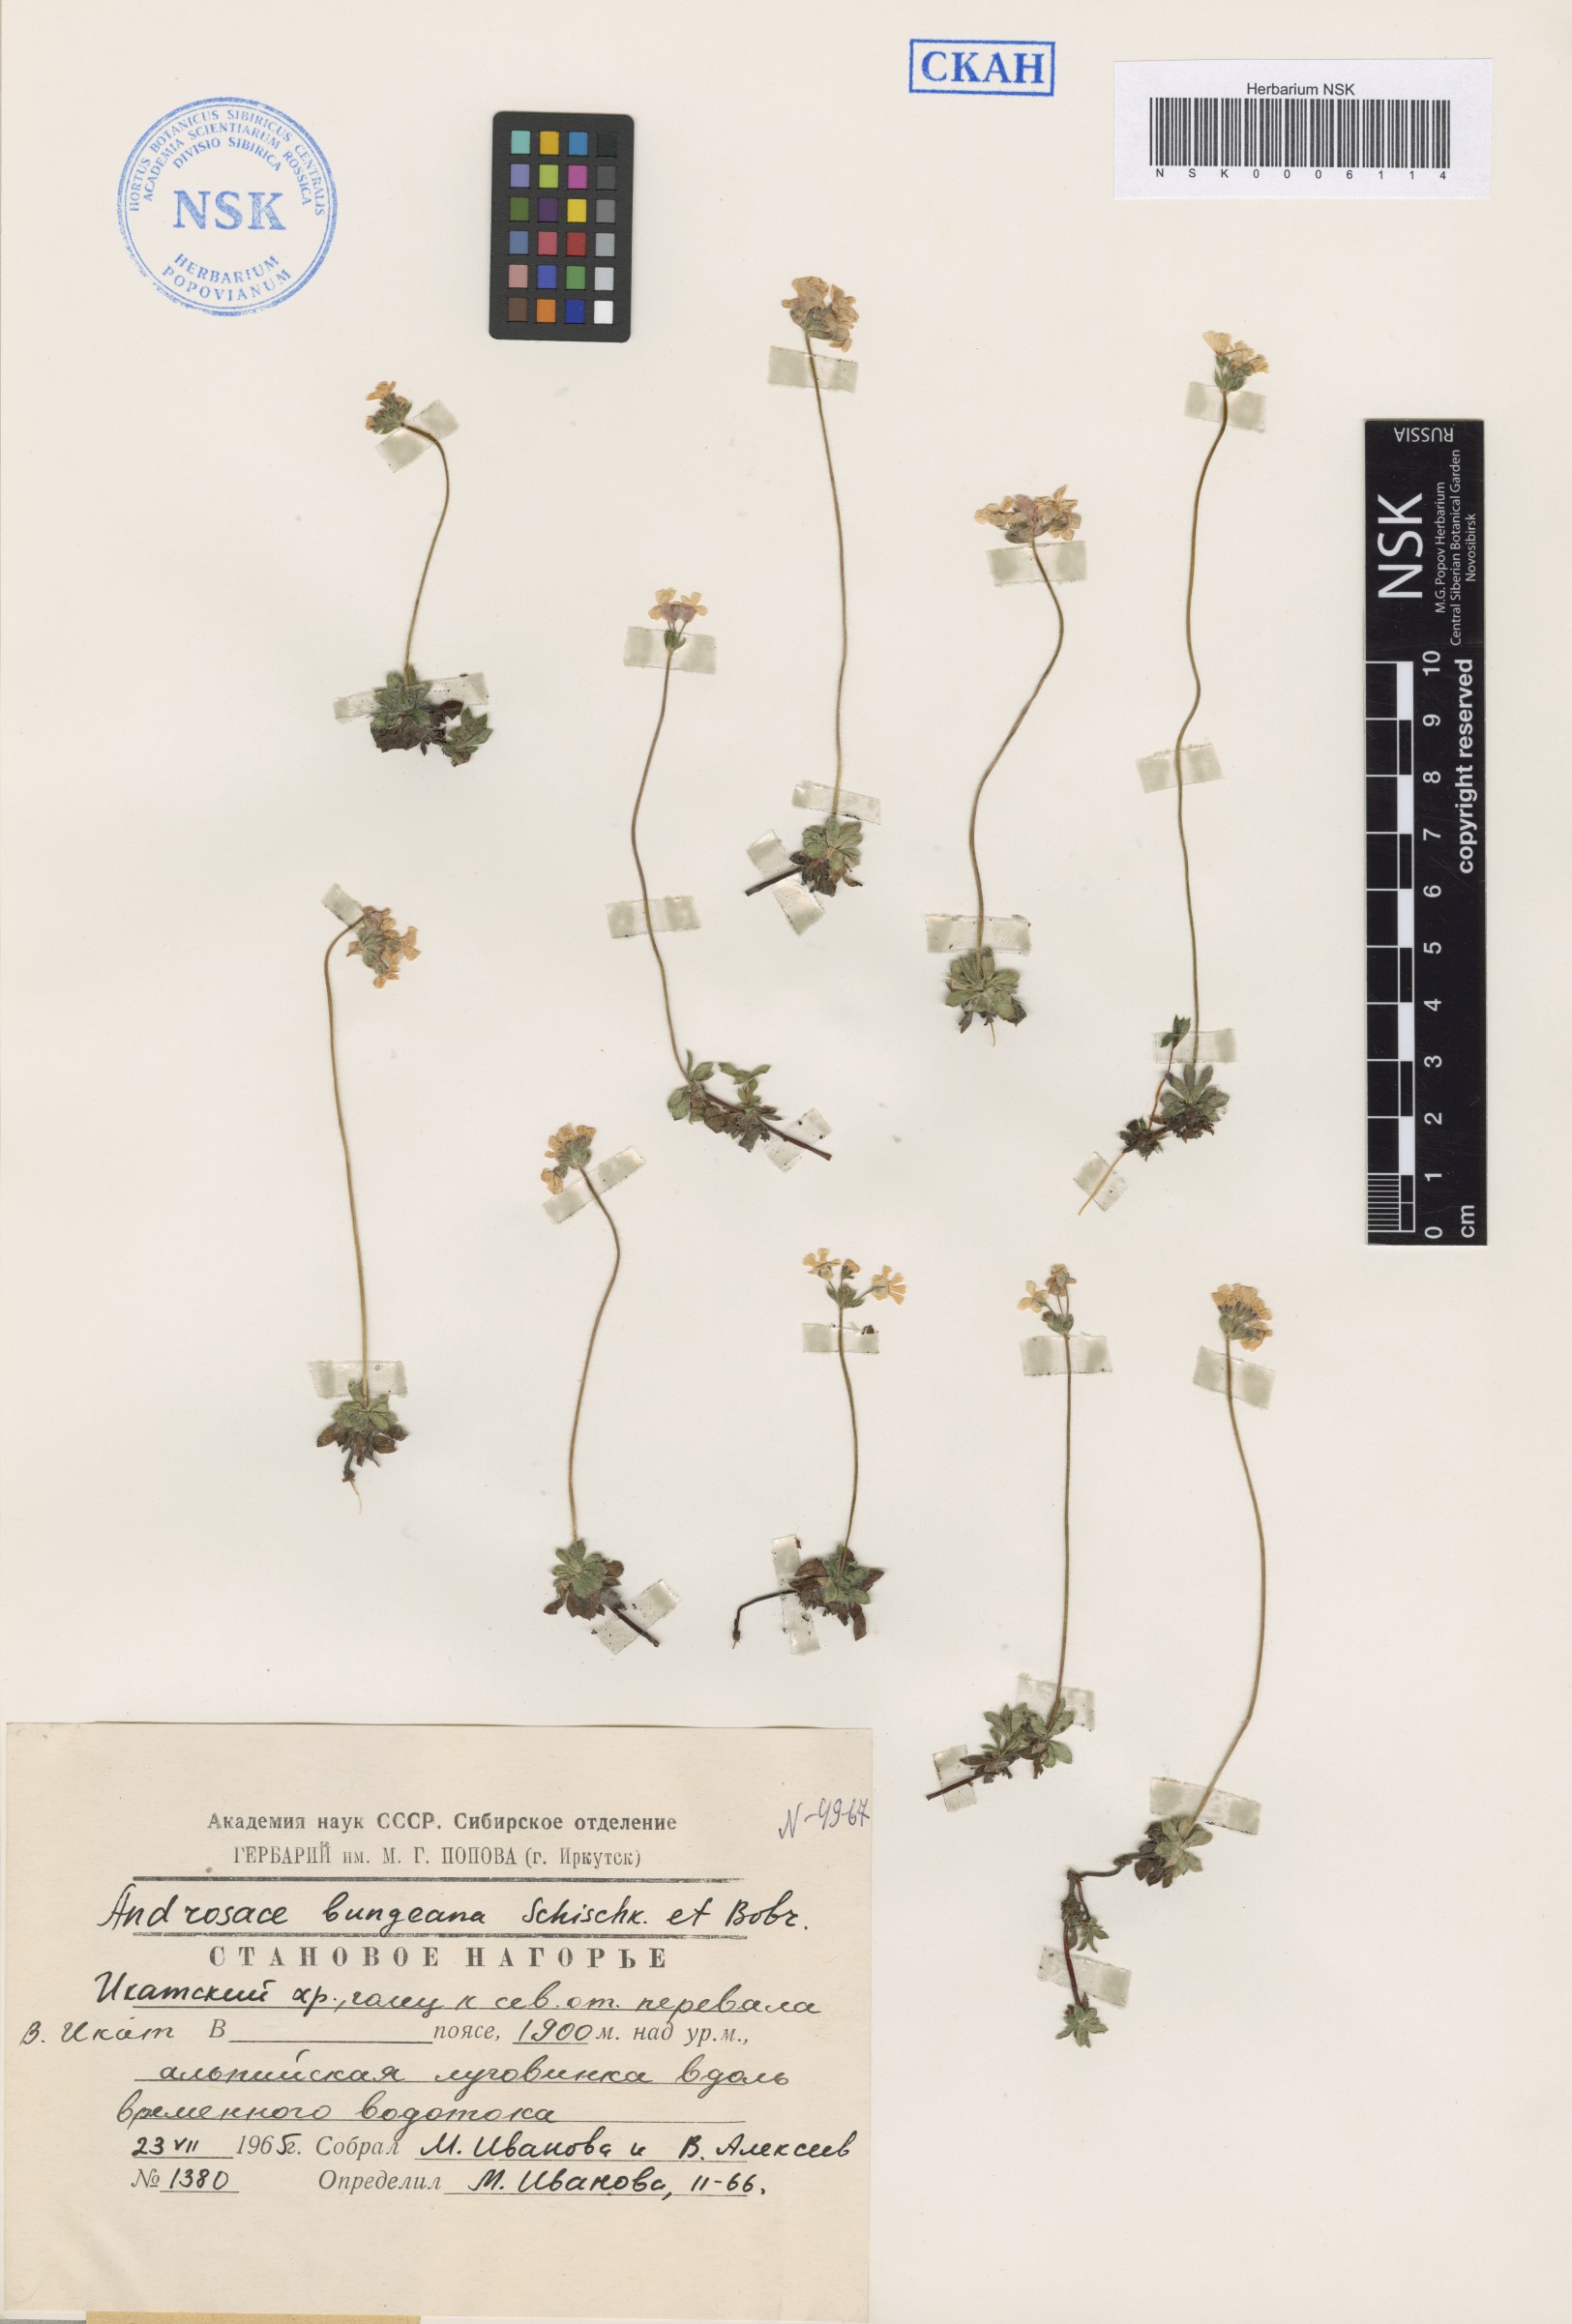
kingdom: Plantae
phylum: Tracheophyta
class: Magnoliopsida
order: Ericales
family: Primulaceae
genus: Androsace
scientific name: Androsace bungeana
